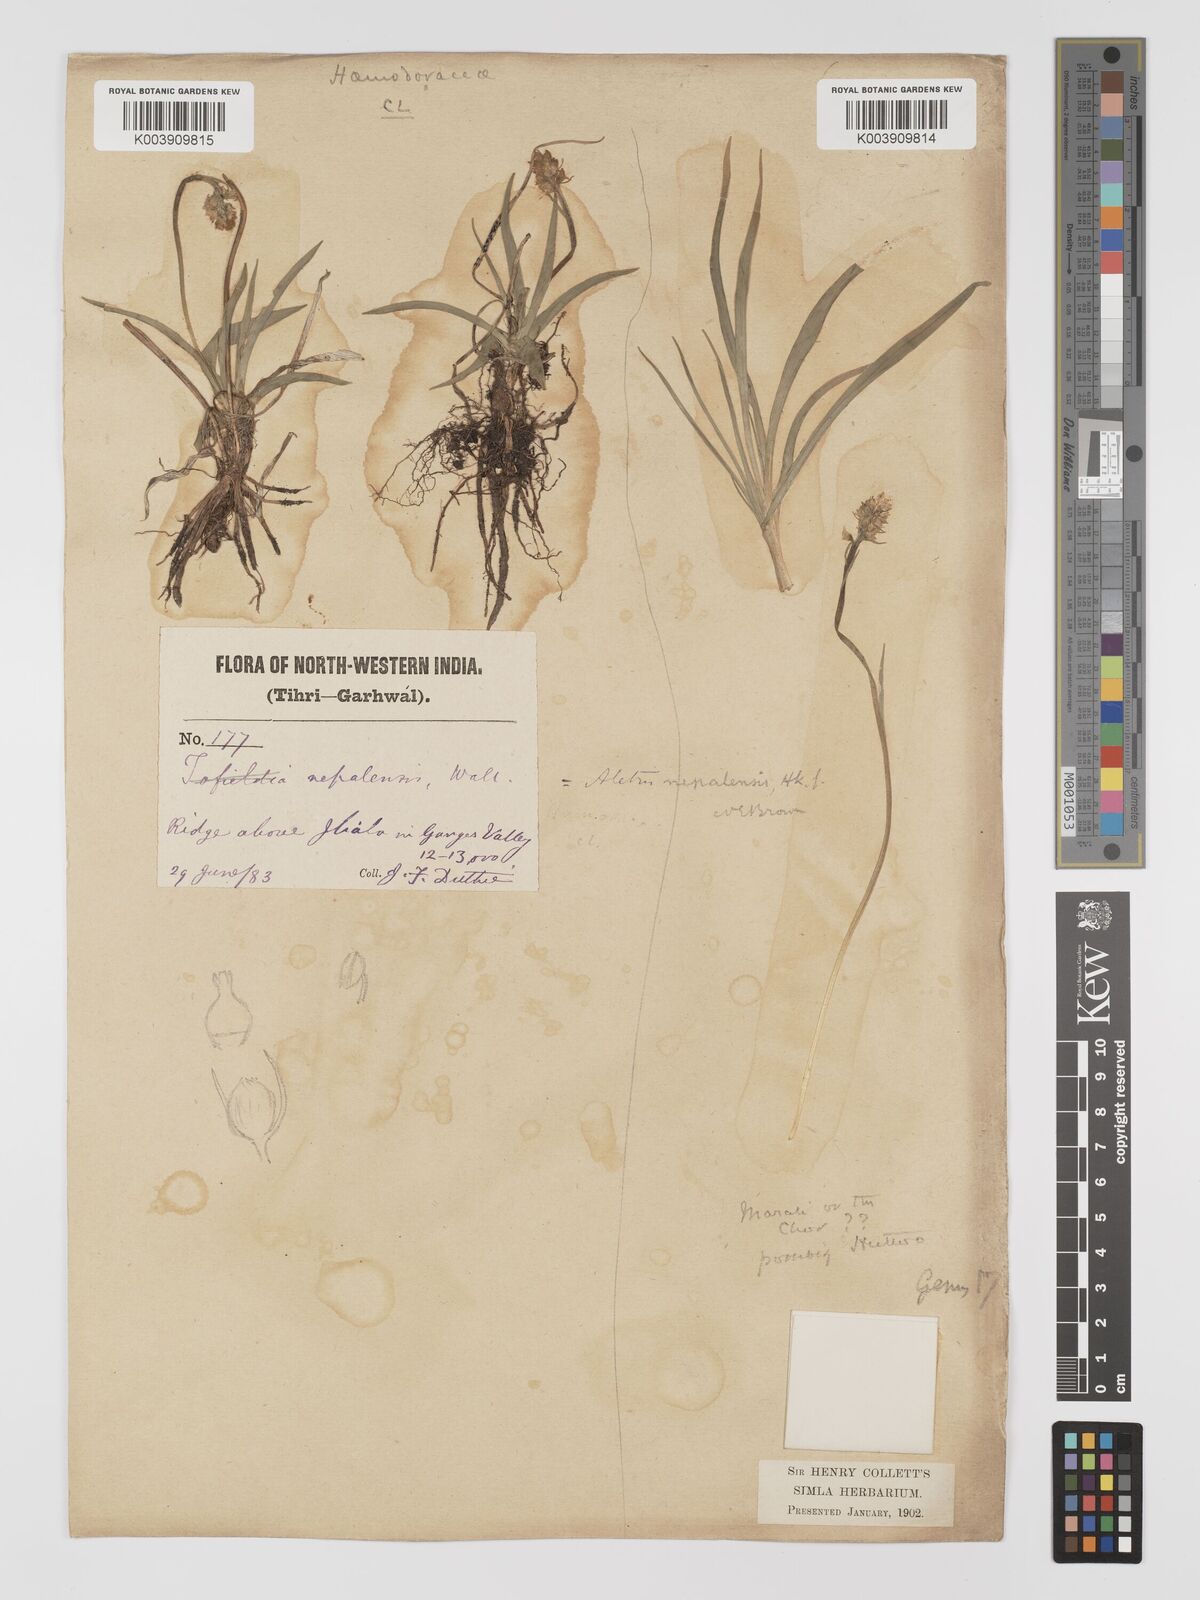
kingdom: Plantae
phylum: Tracheophyta
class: Liliopsida
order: Dioscoreales
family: Nartheciaceae
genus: Aletris
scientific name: Aletris pauciflora
